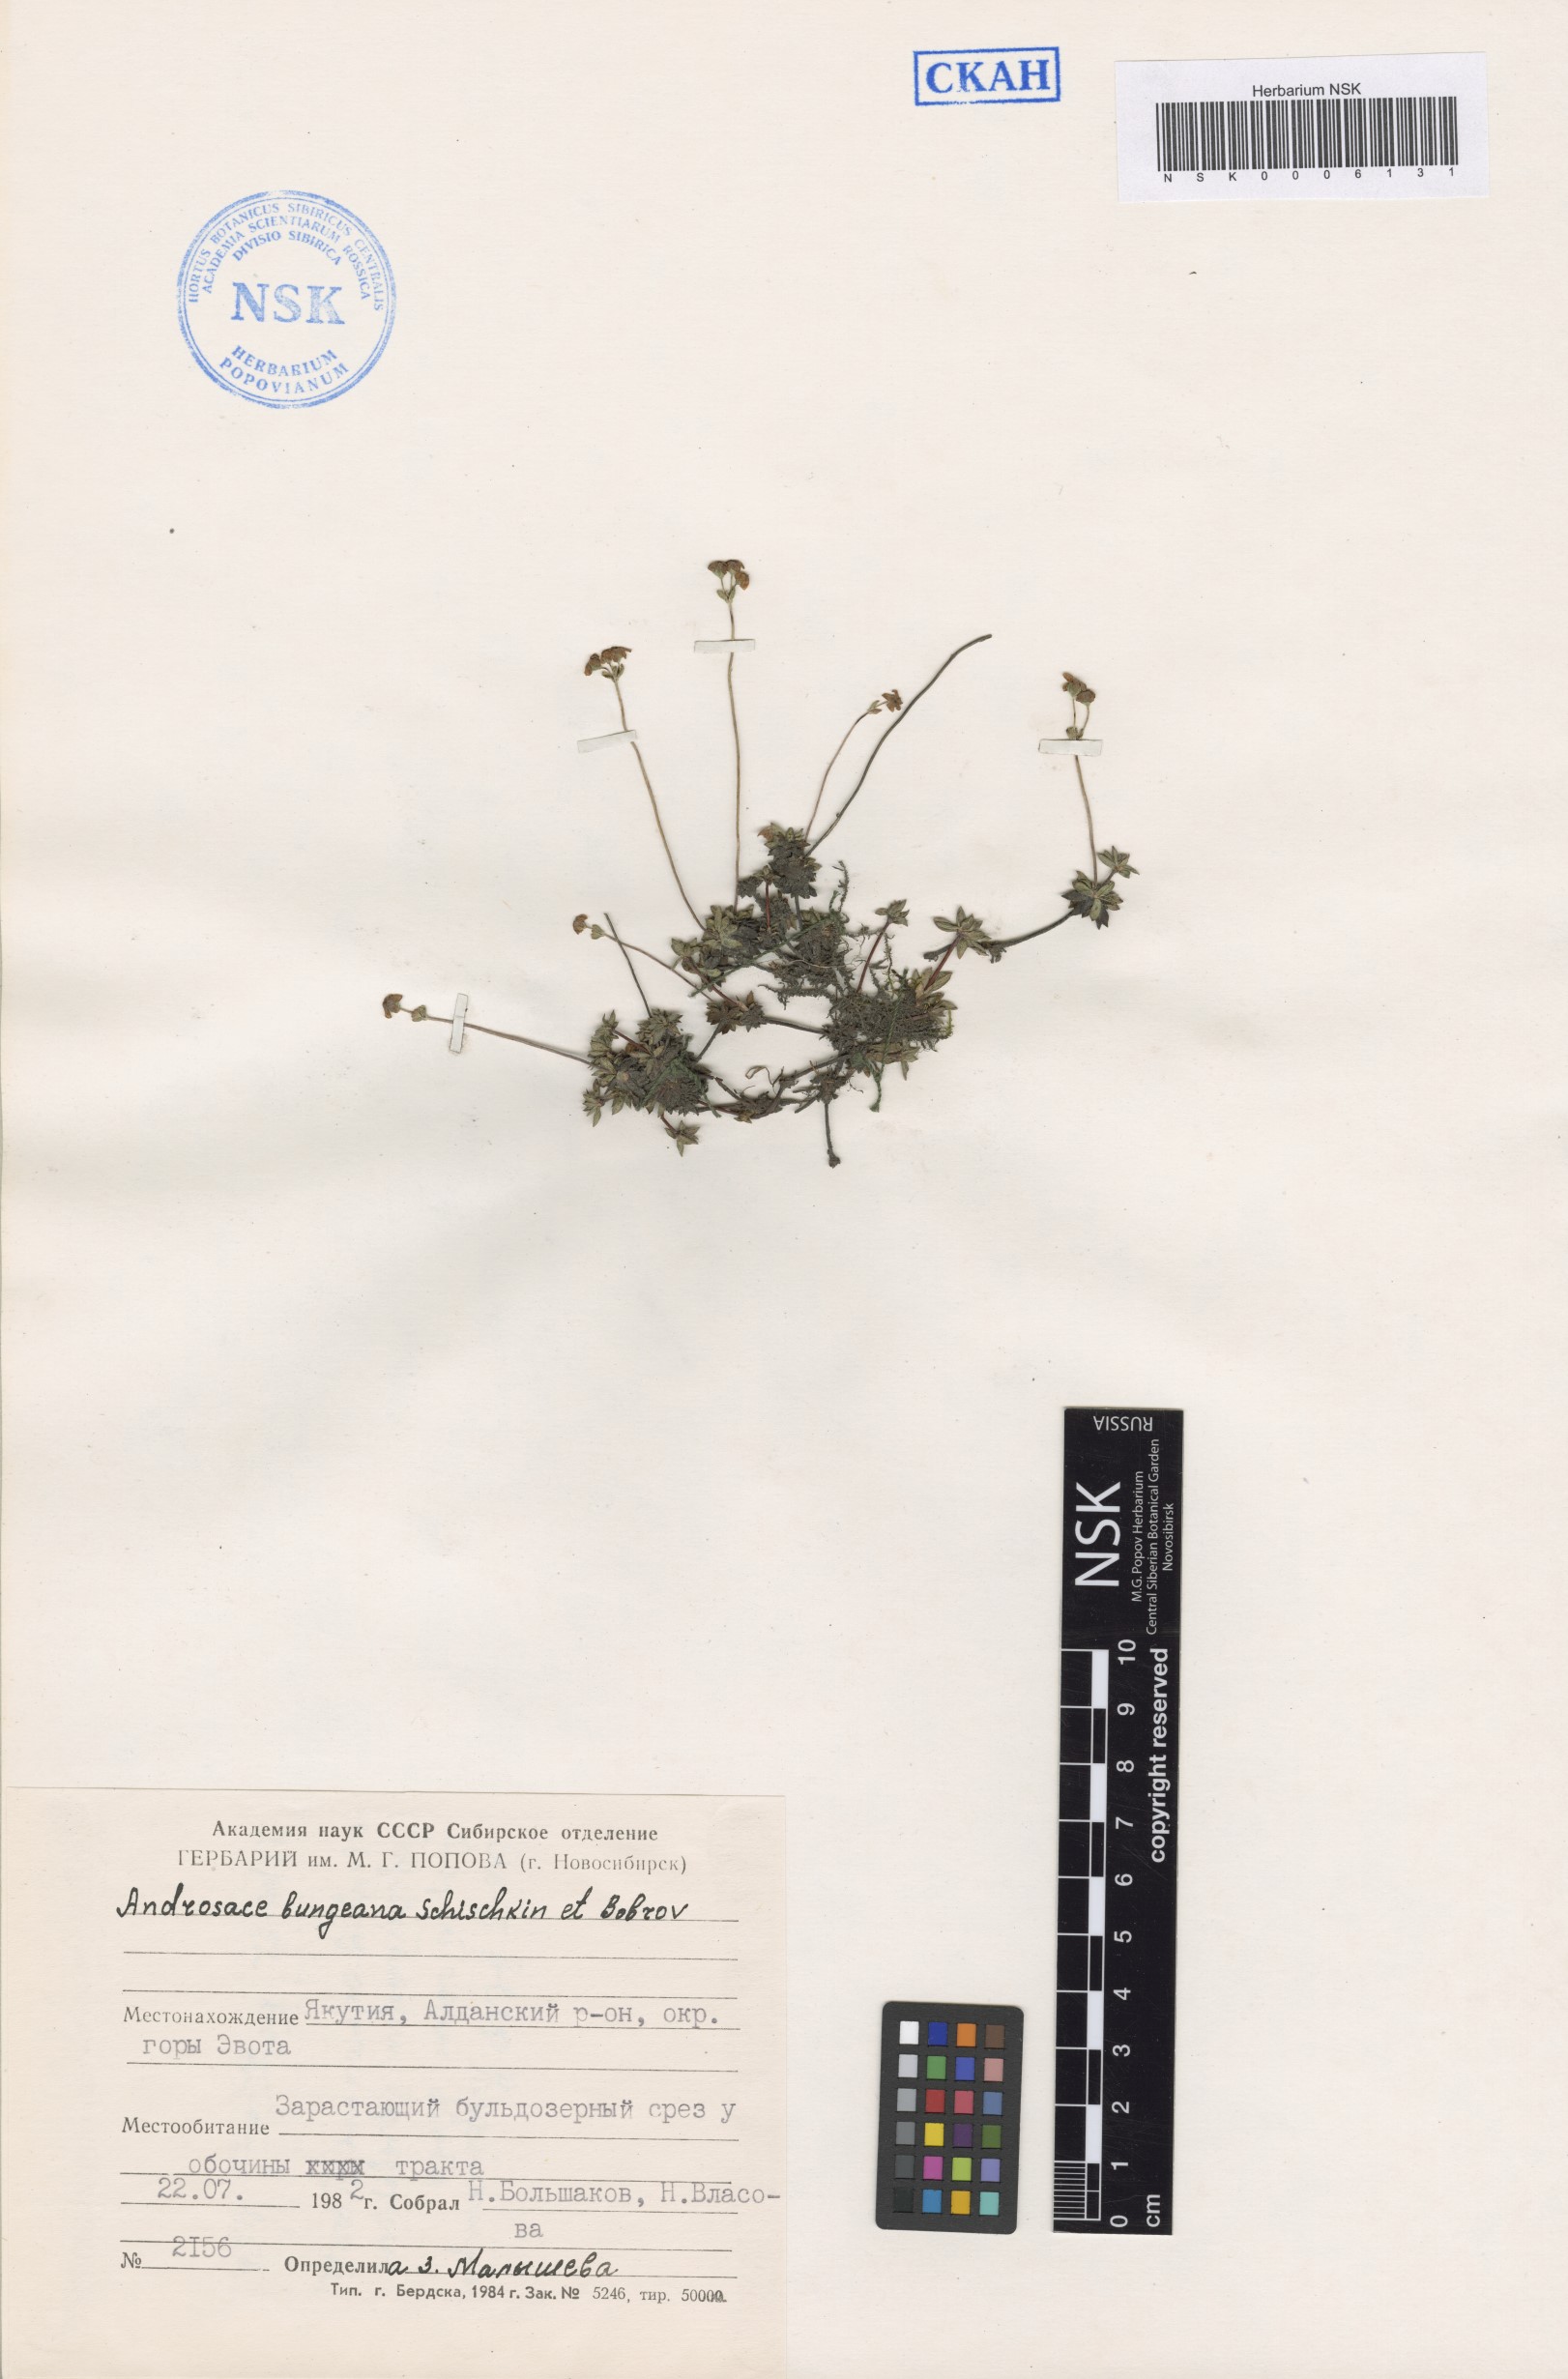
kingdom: Plantae
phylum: Tracheophyta
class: Magnoliopsida
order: Ericales
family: Primulaceae
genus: Androsace
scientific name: Androsace bungeana
